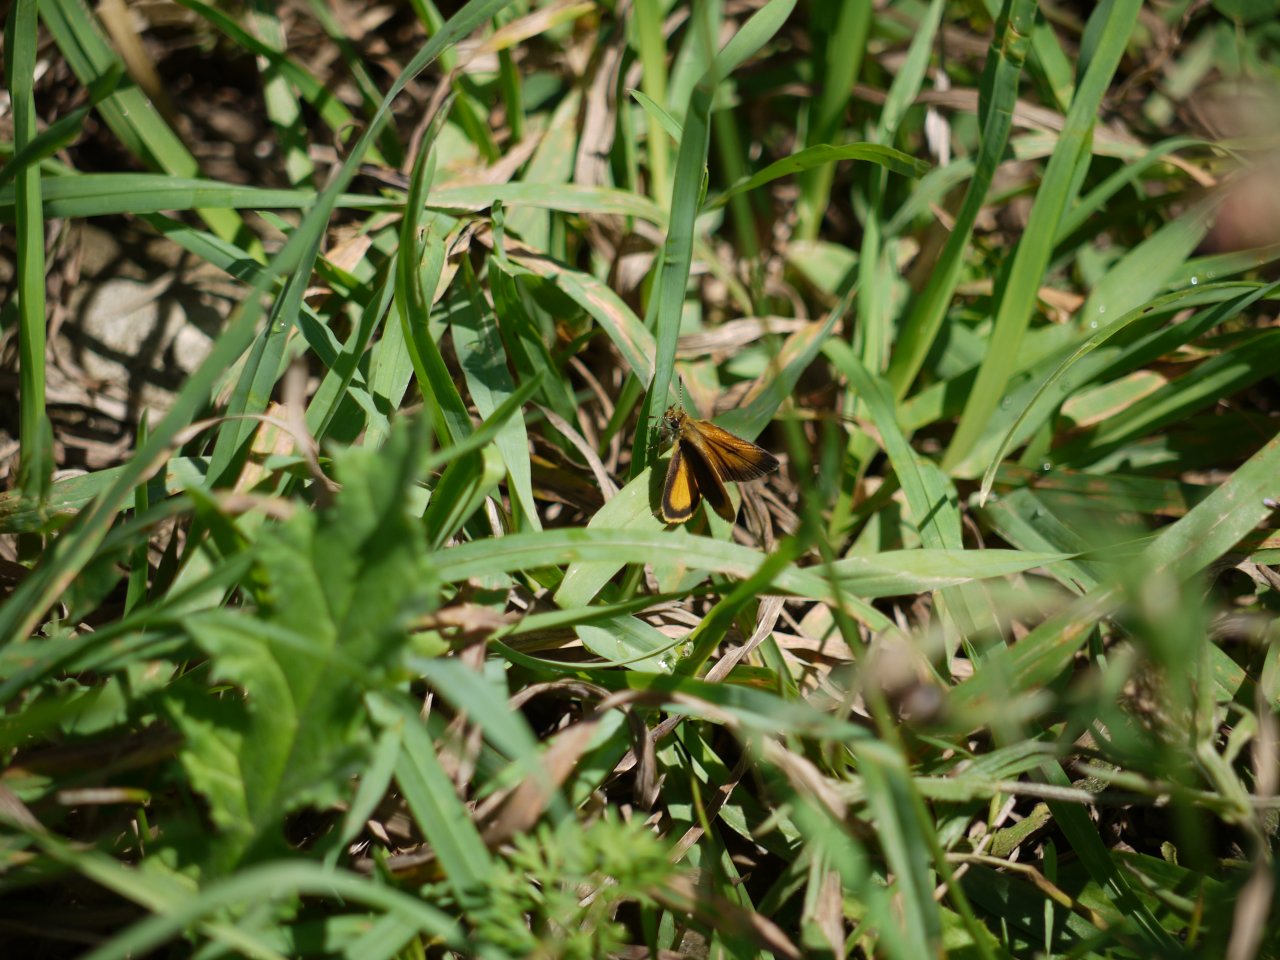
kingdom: Animalia
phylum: Arthropoda
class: Insecta
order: Lepidoptera
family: Hesperiidae
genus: Ancyloxypha
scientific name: Ancyloxypha numitor
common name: Least Skipper
